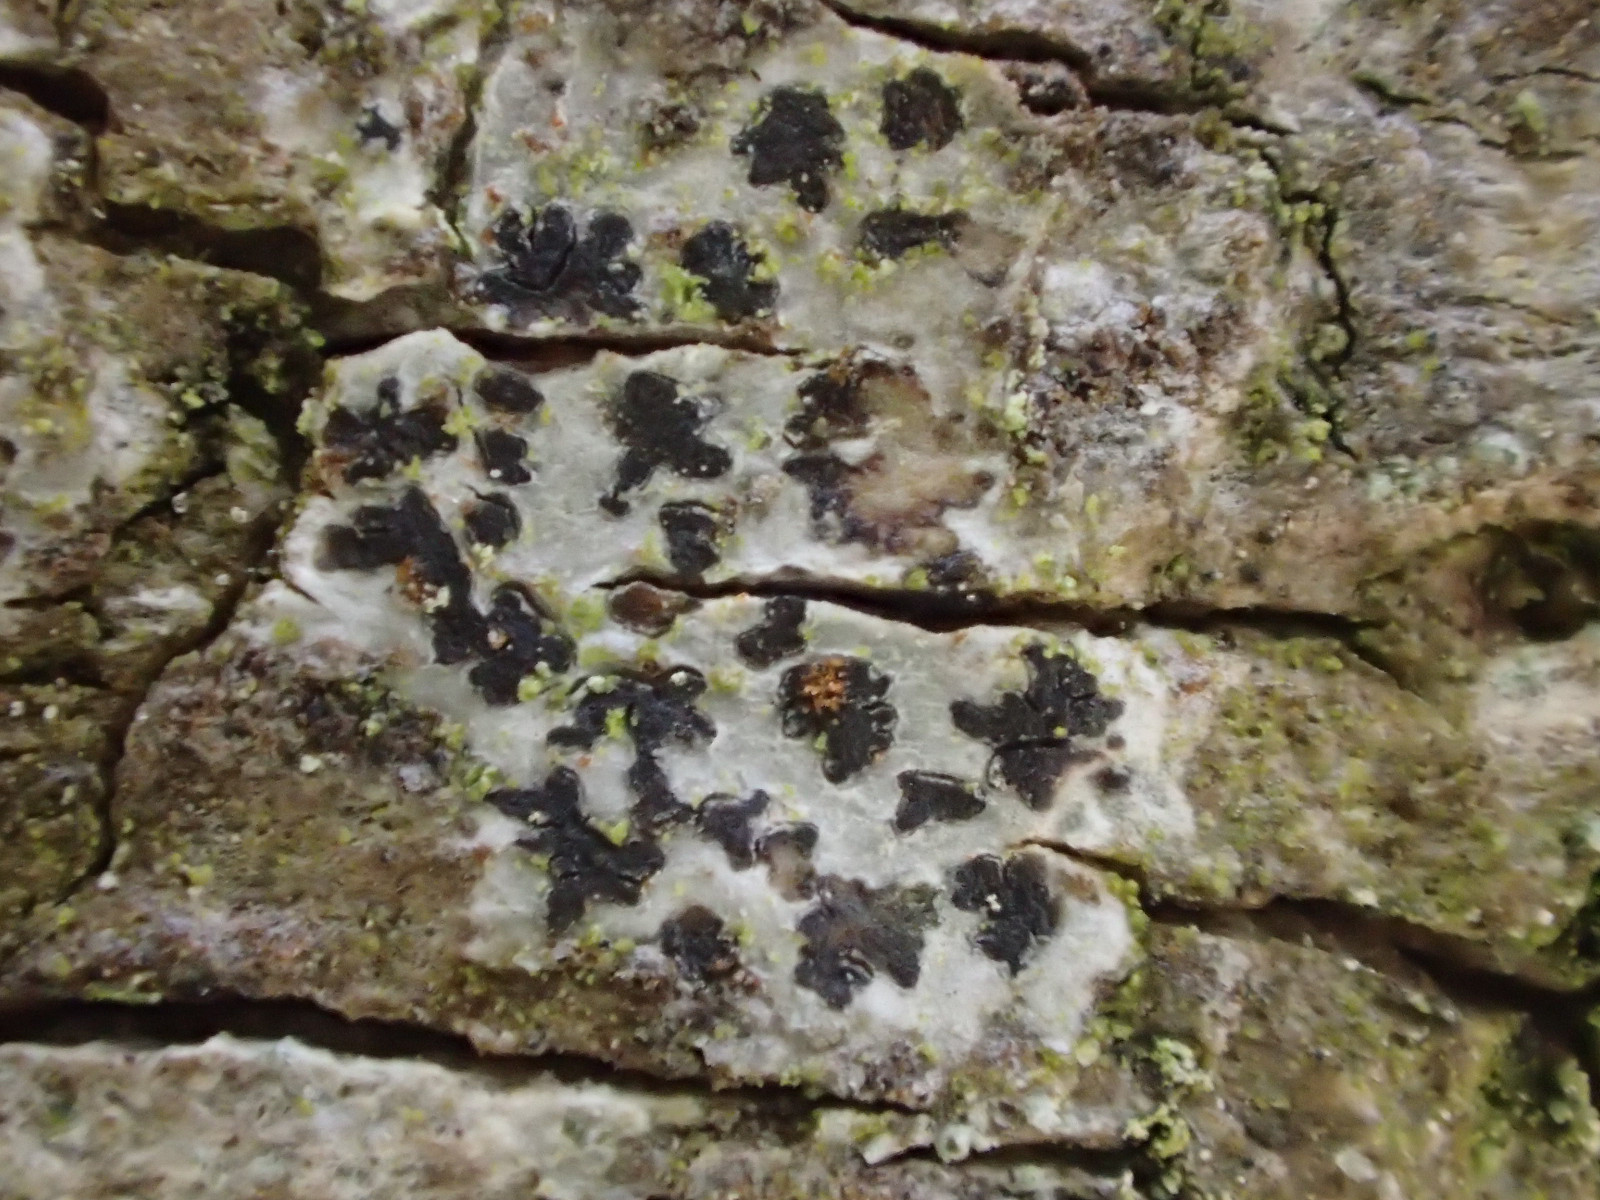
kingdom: Fungi
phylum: Ascomycota
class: Arthoniomycetes
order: Arthoniales
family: Arthoniaceae
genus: Arthonia
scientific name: Arthonia radiata
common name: stjerne-pletlav
